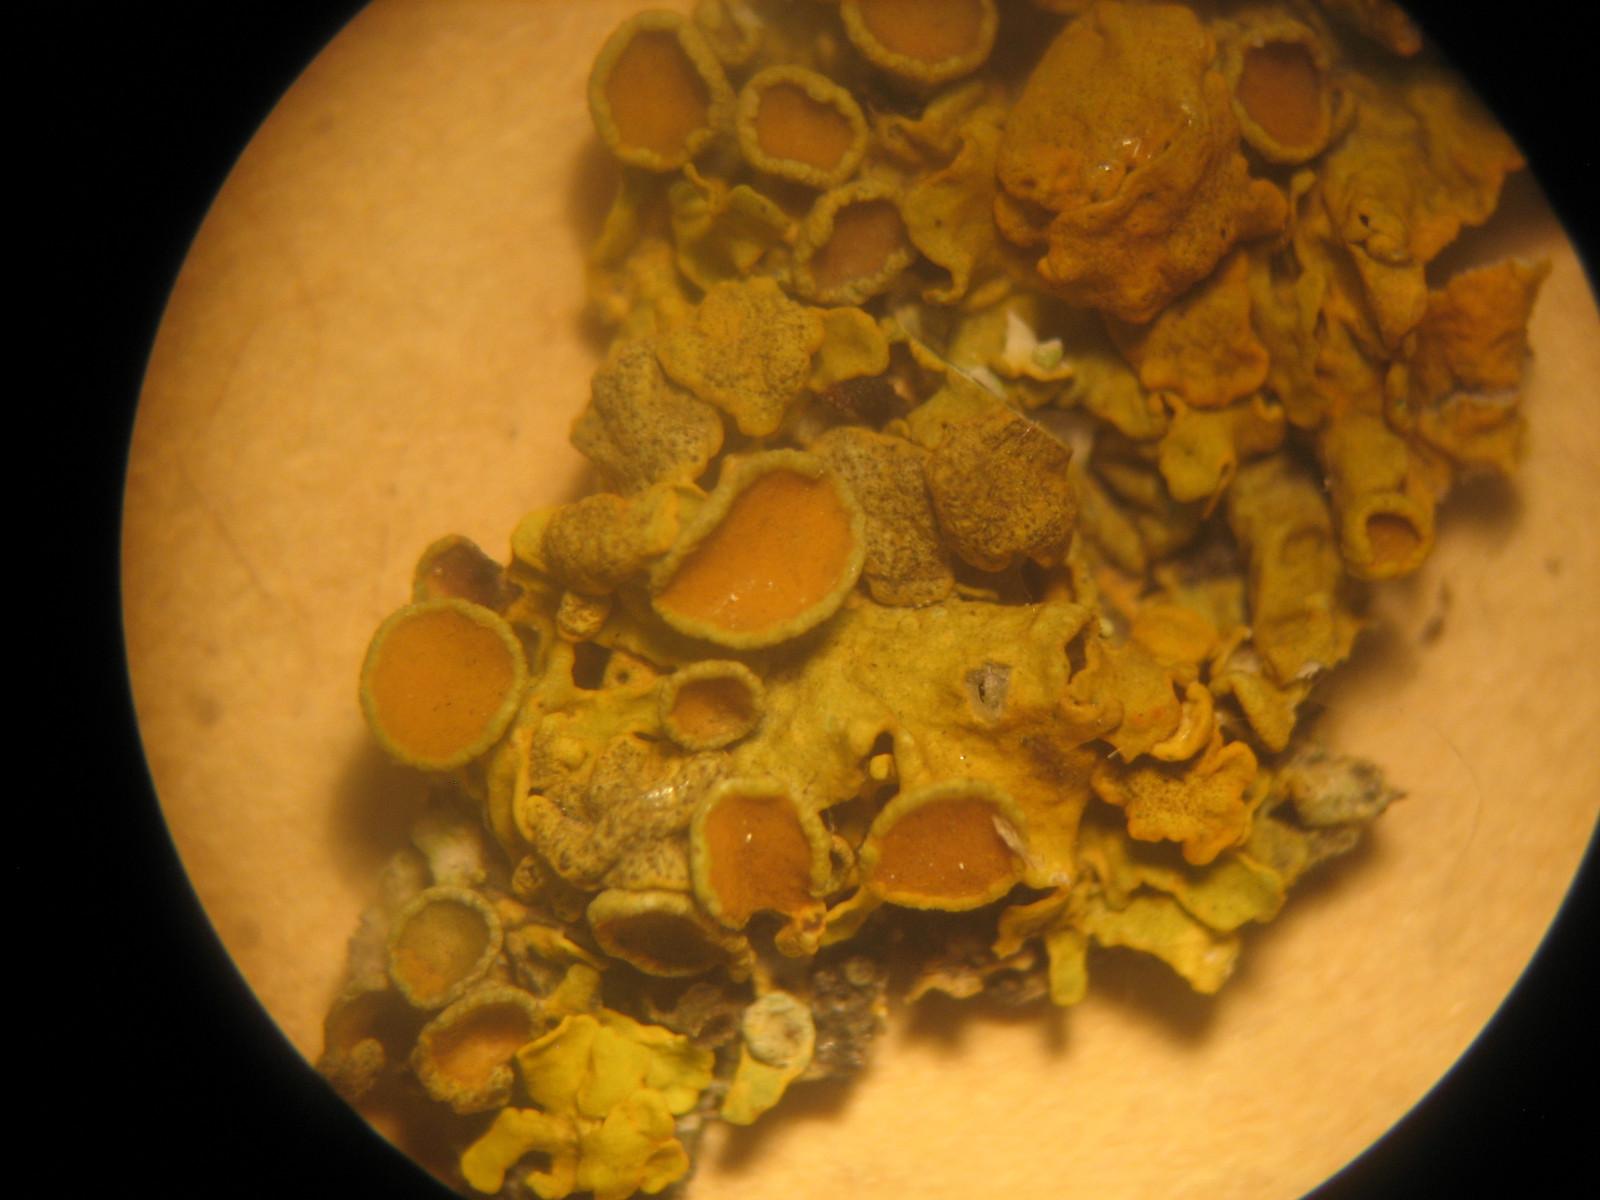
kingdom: Fungi
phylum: Ascomycota
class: Eurotiomycetes
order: Verrucariales
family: Verrucariaceae
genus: Telogalla
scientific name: Telogalla olivieri
